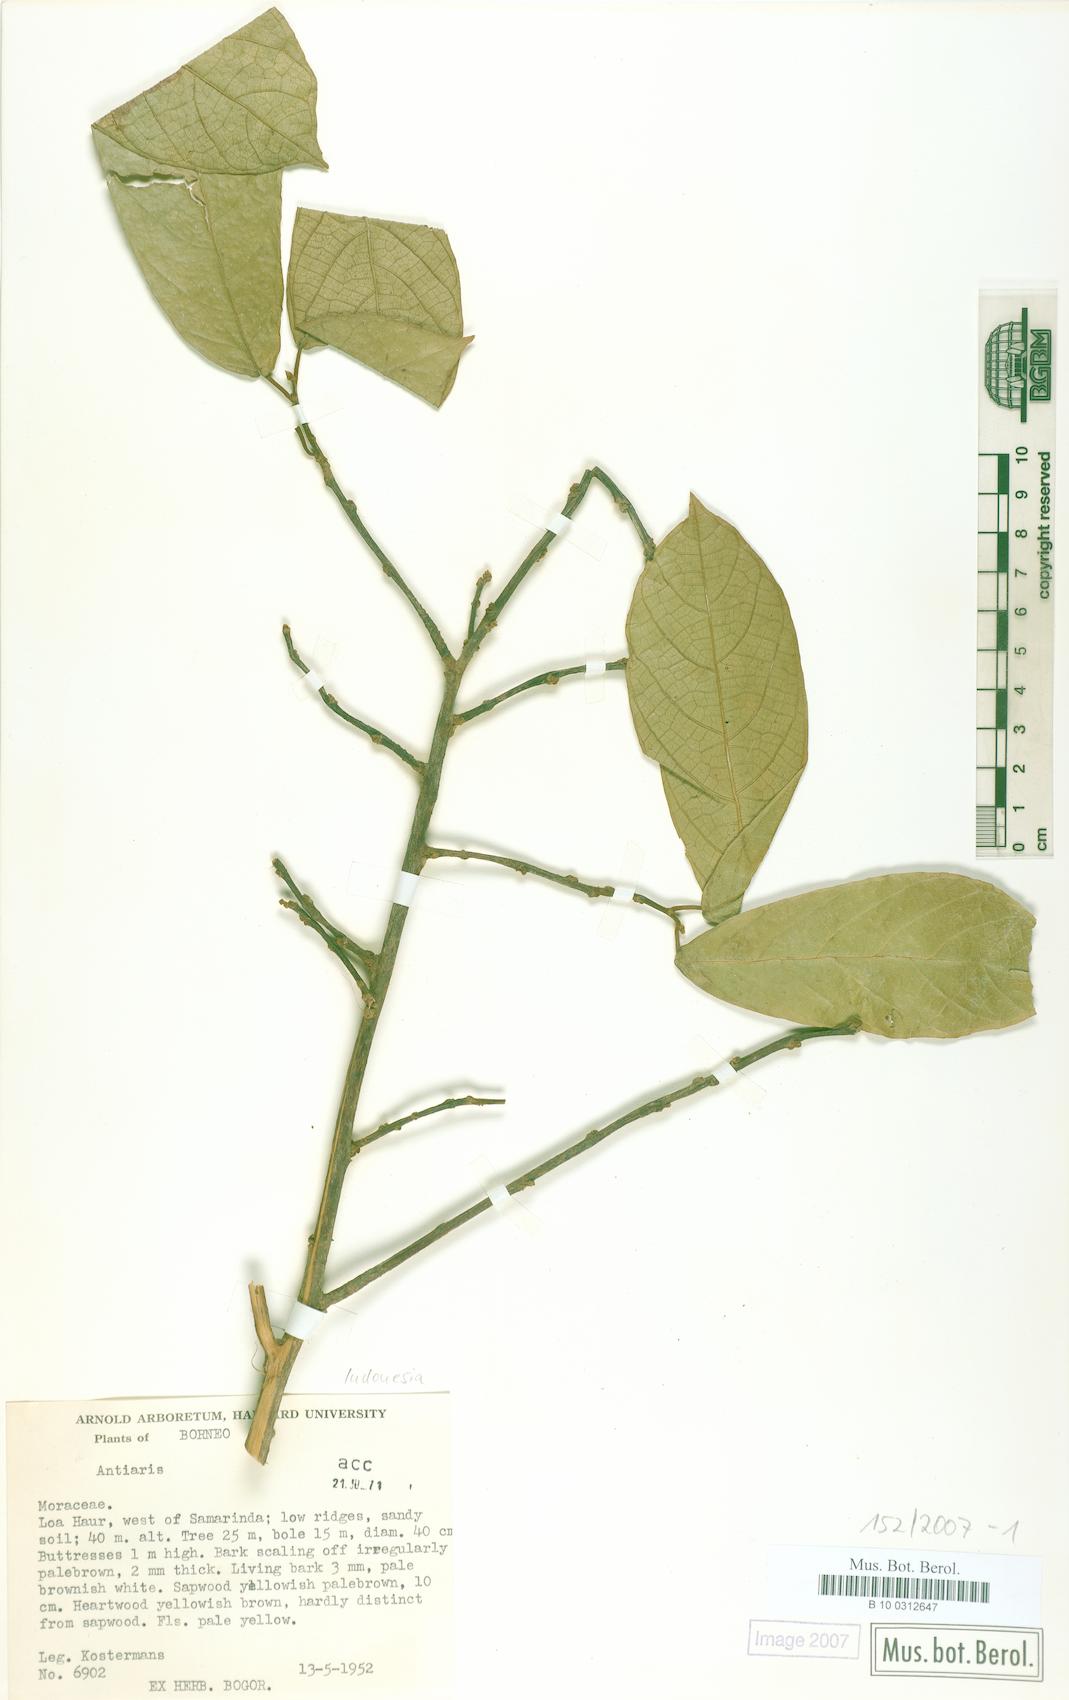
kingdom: Plantae
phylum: Tracheophyta
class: Magnoliopsida
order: Rosales
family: Moraceae
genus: Antiaris
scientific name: Antiaris
